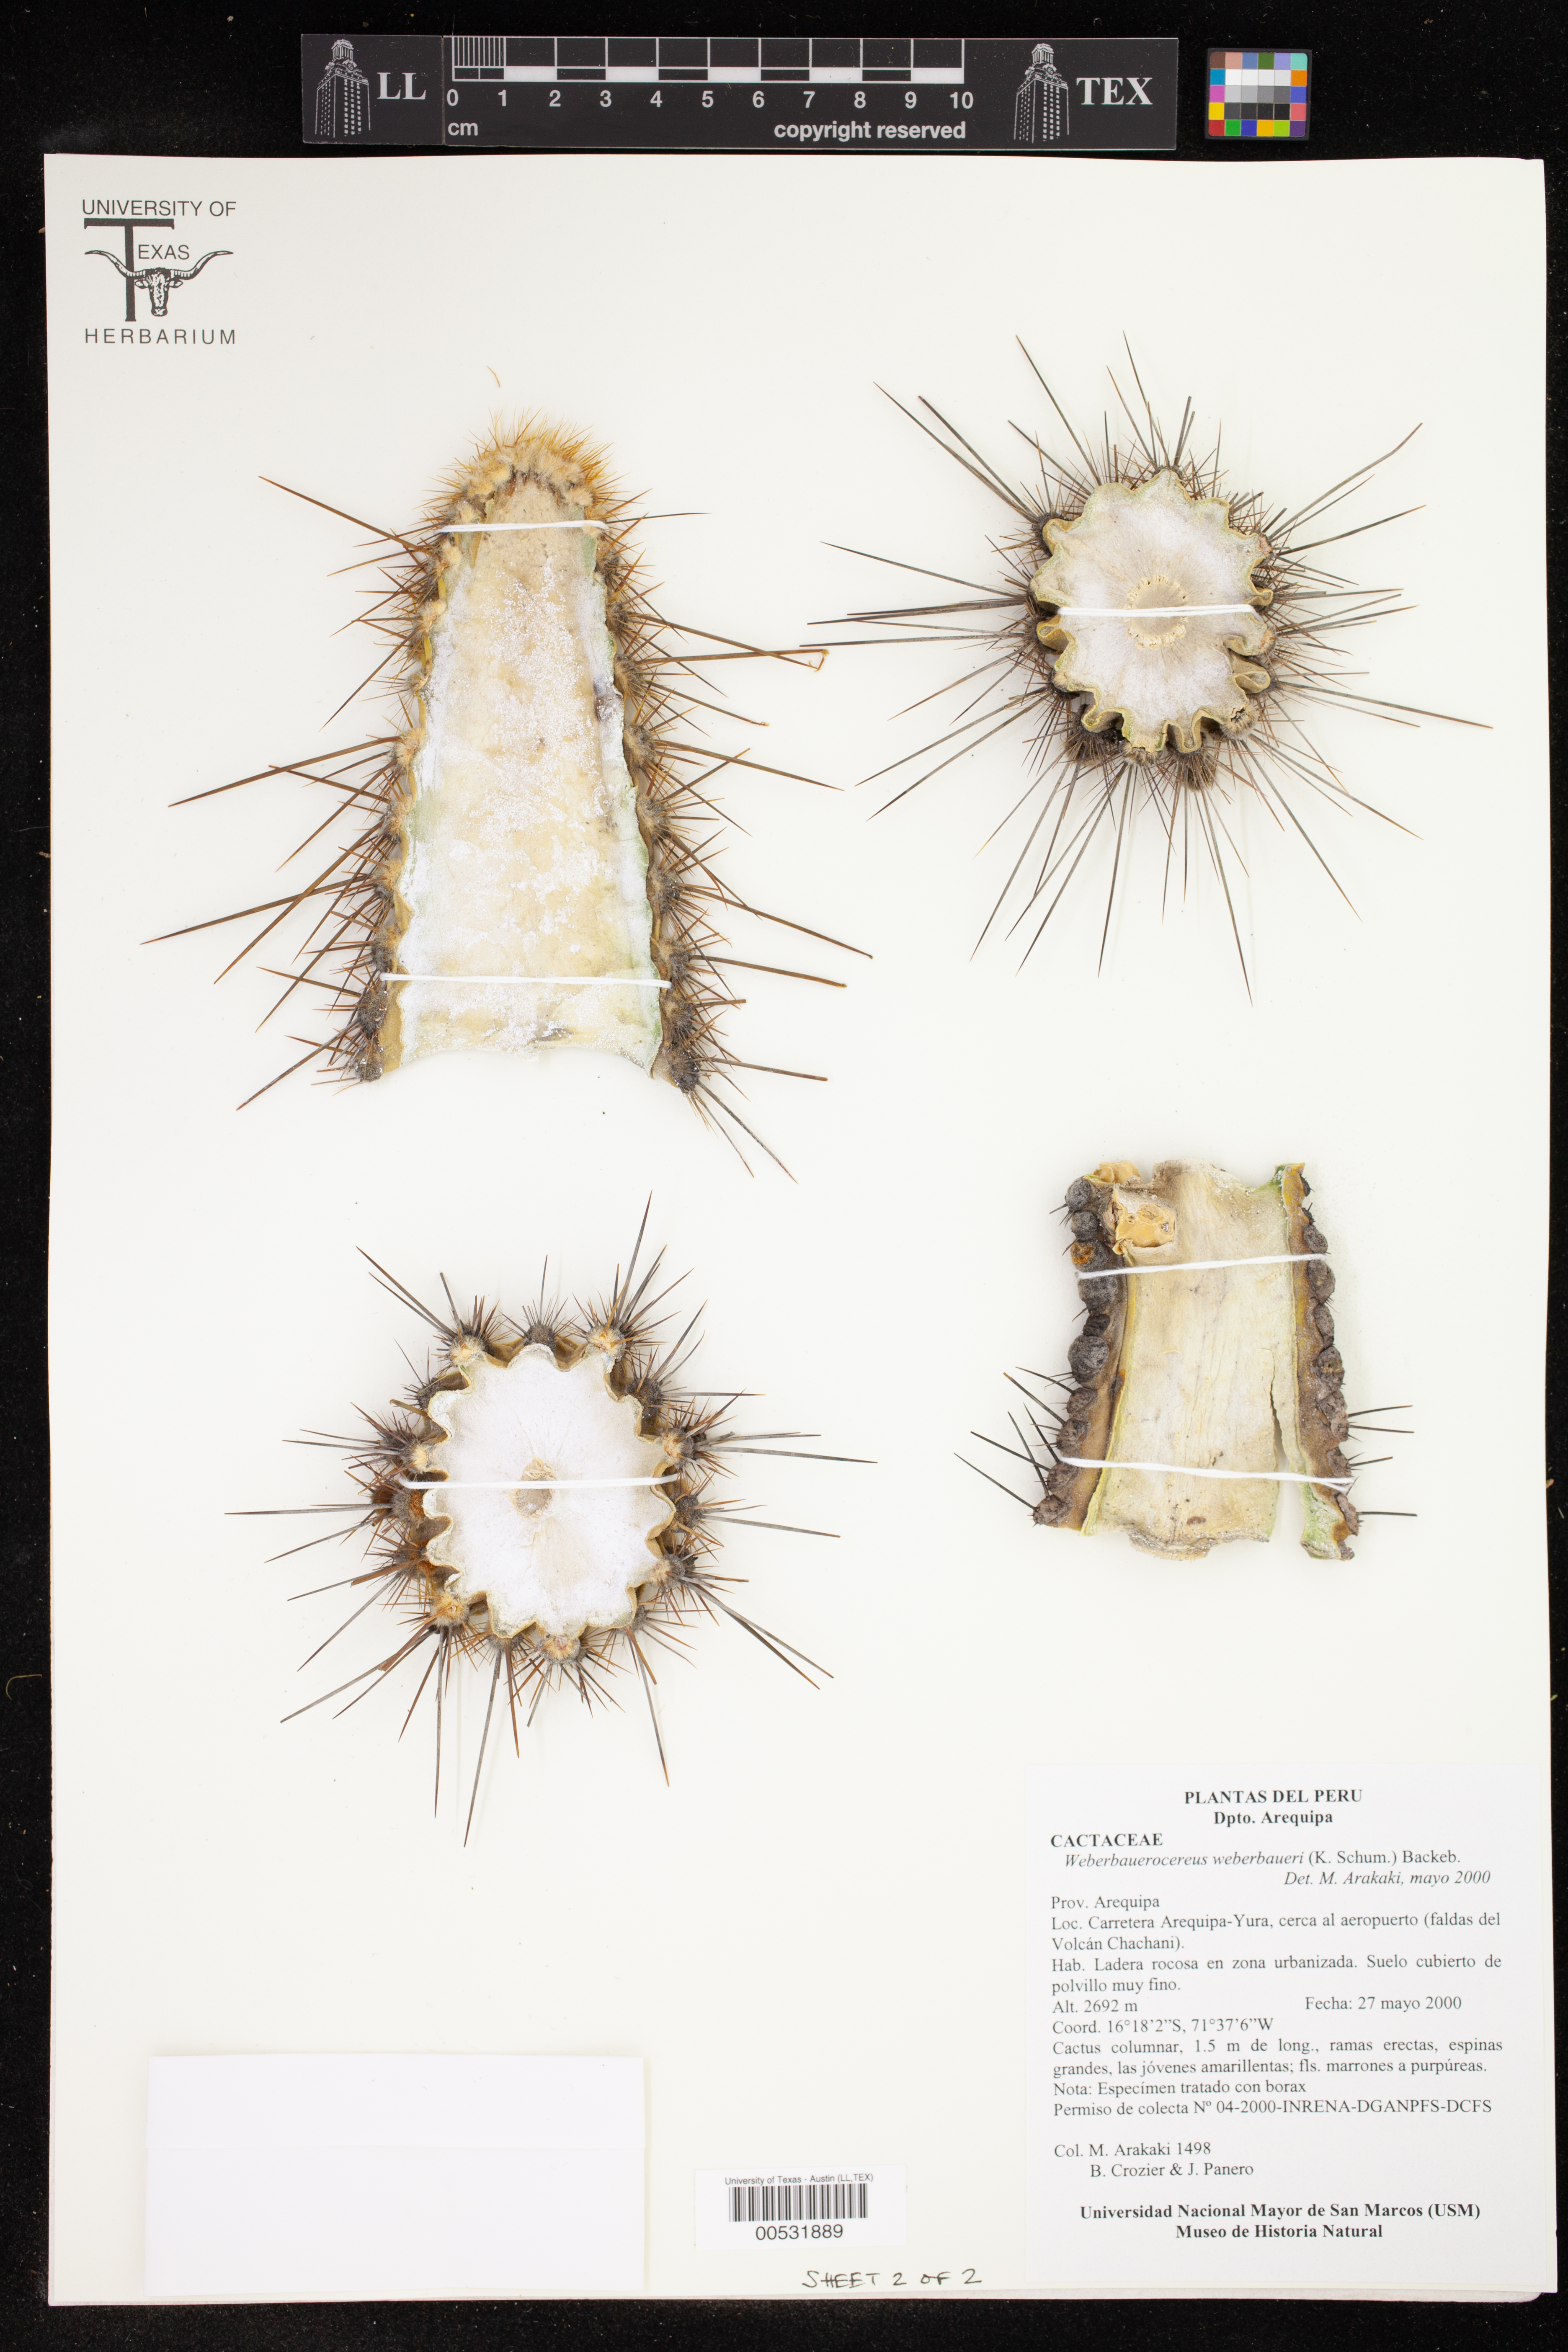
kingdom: Plantae
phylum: Tracheophyta
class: Magnoliopsida
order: Caryophyllales
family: Cactaceae
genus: Weberbauerocereus
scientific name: Weberbauerocereus weberbaueri
